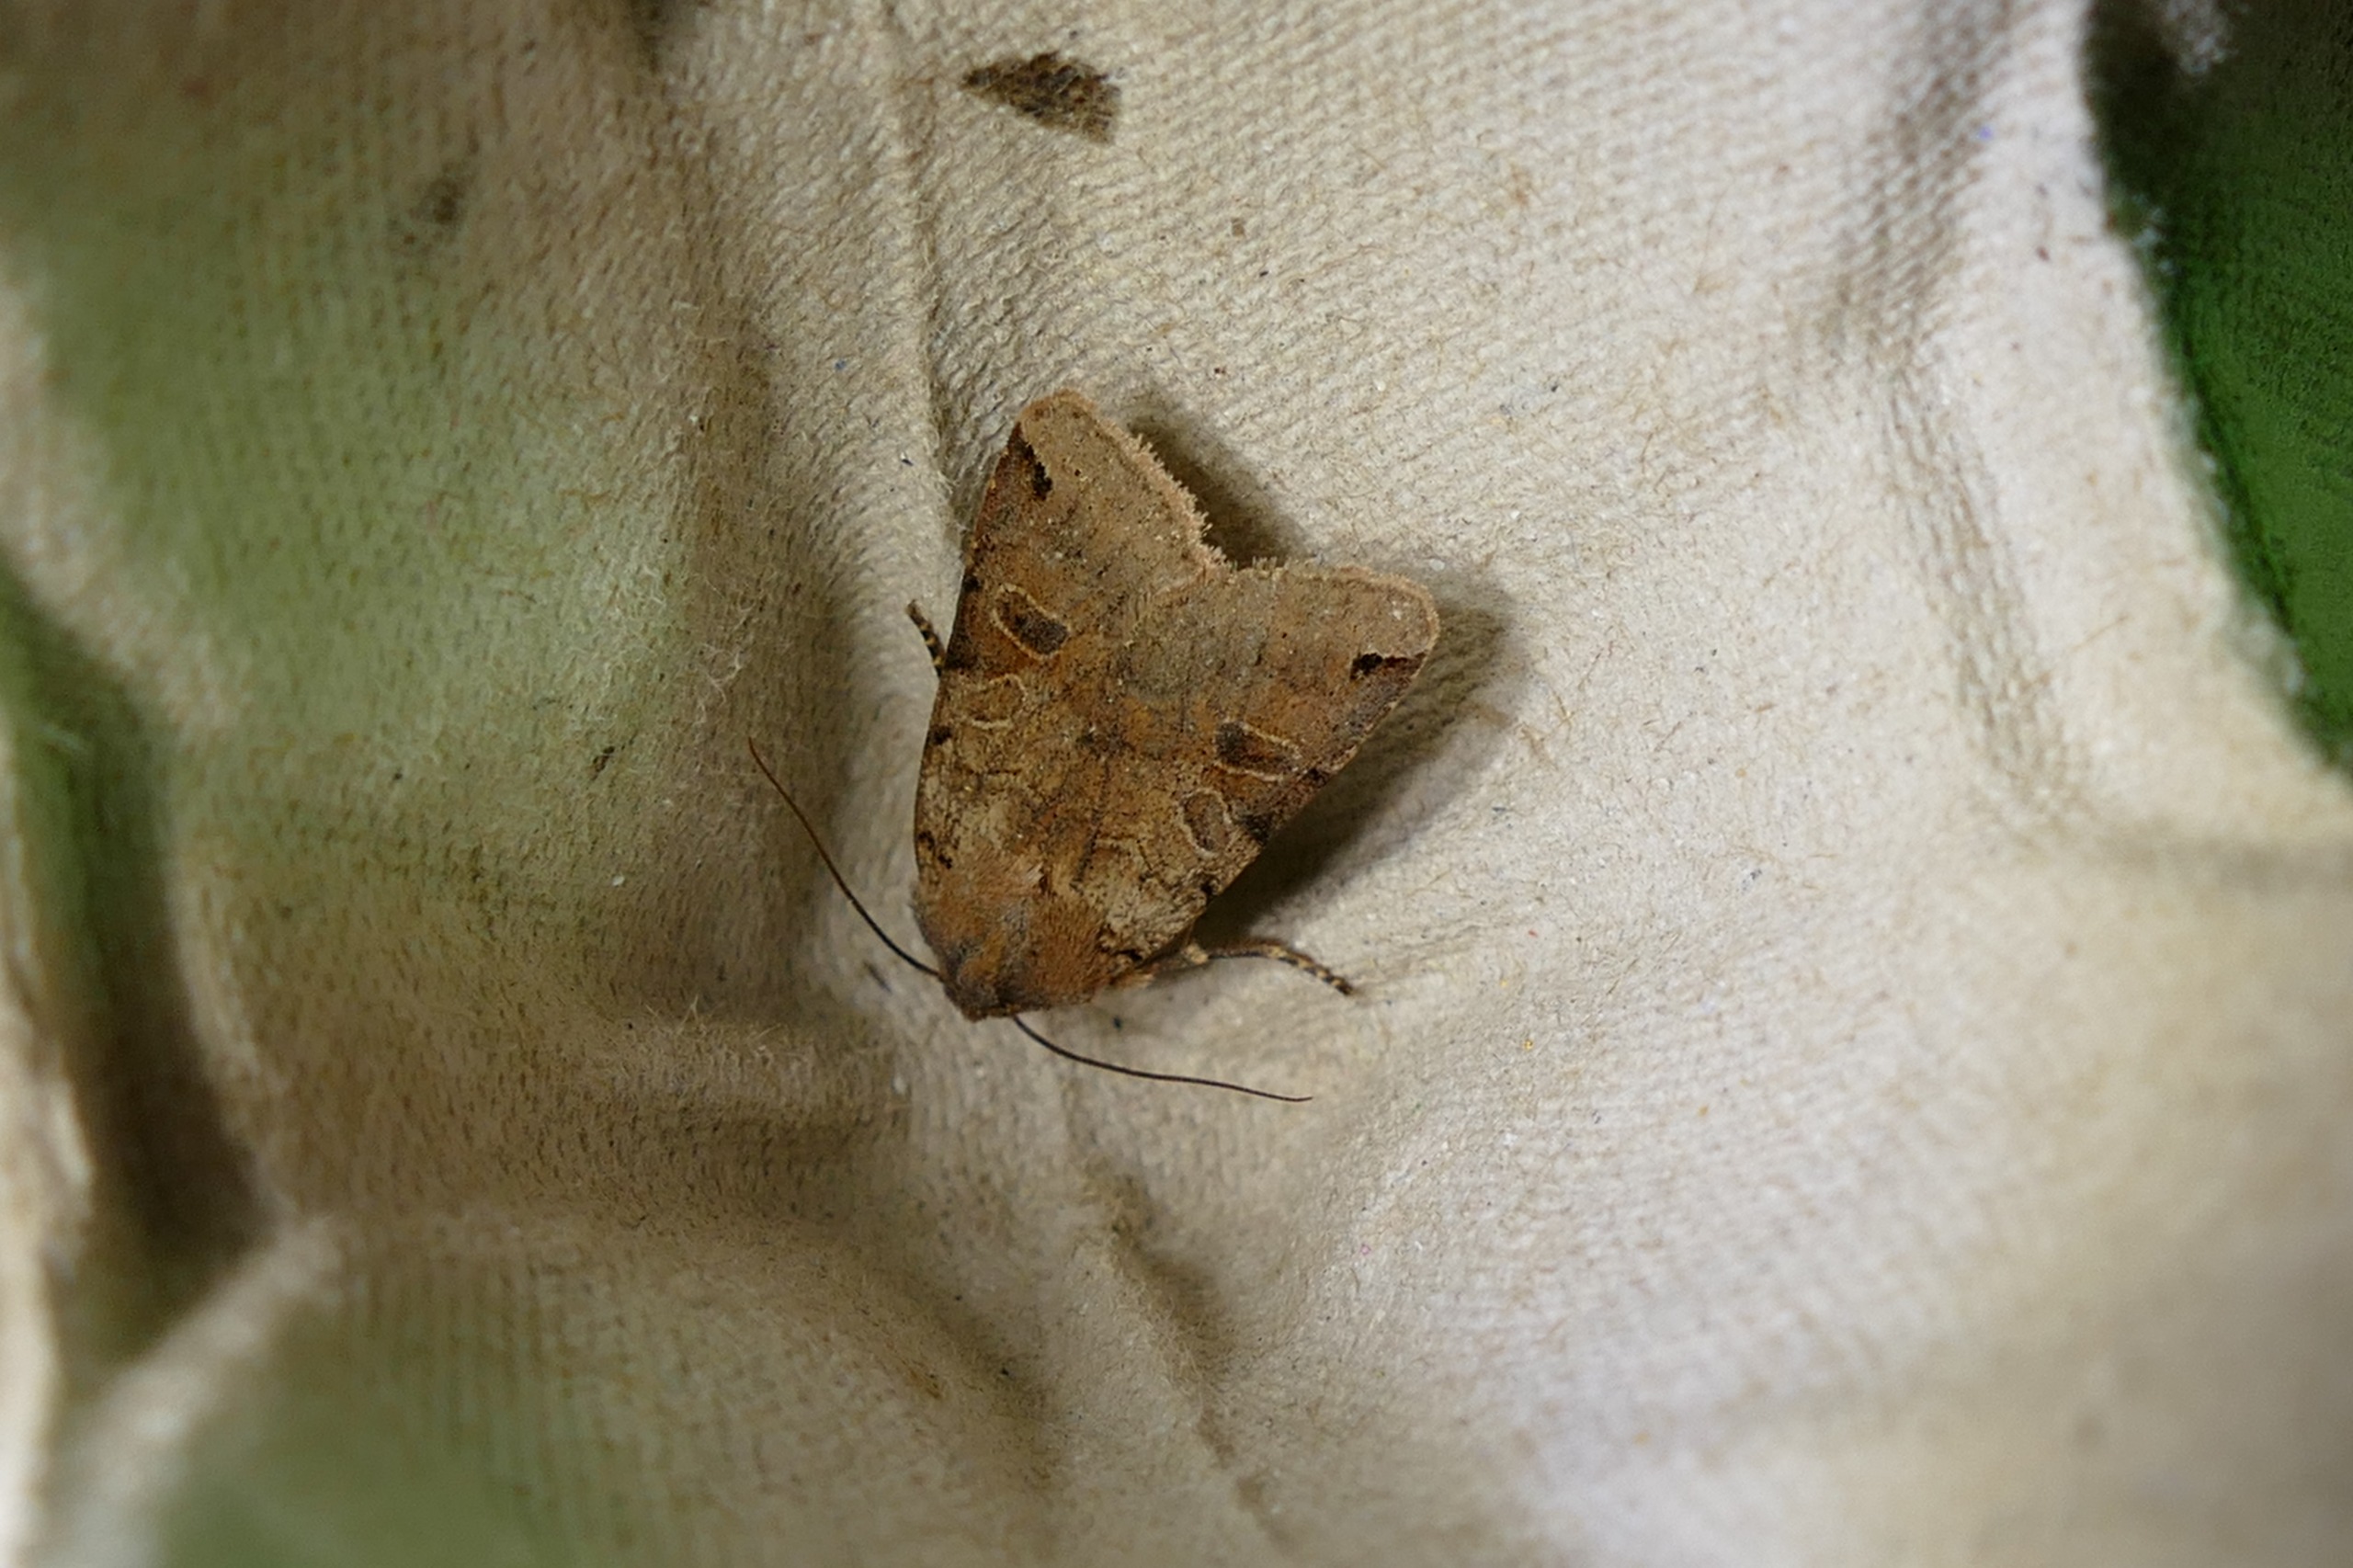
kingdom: Animalia
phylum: Arthropoda
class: Insecta
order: Lepidoptera
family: Noctuidae
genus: Agrochola
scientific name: Agrochola litura
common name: Kantplettet jordfarveugle
